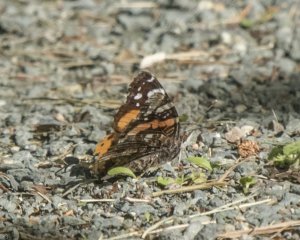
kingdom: Animalia
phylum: Arthropoda
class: Insecta
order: Lepidoptera
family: Nymphalidae
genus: Vanessa
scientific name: Vanessa atalanta
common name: Red Admiral
